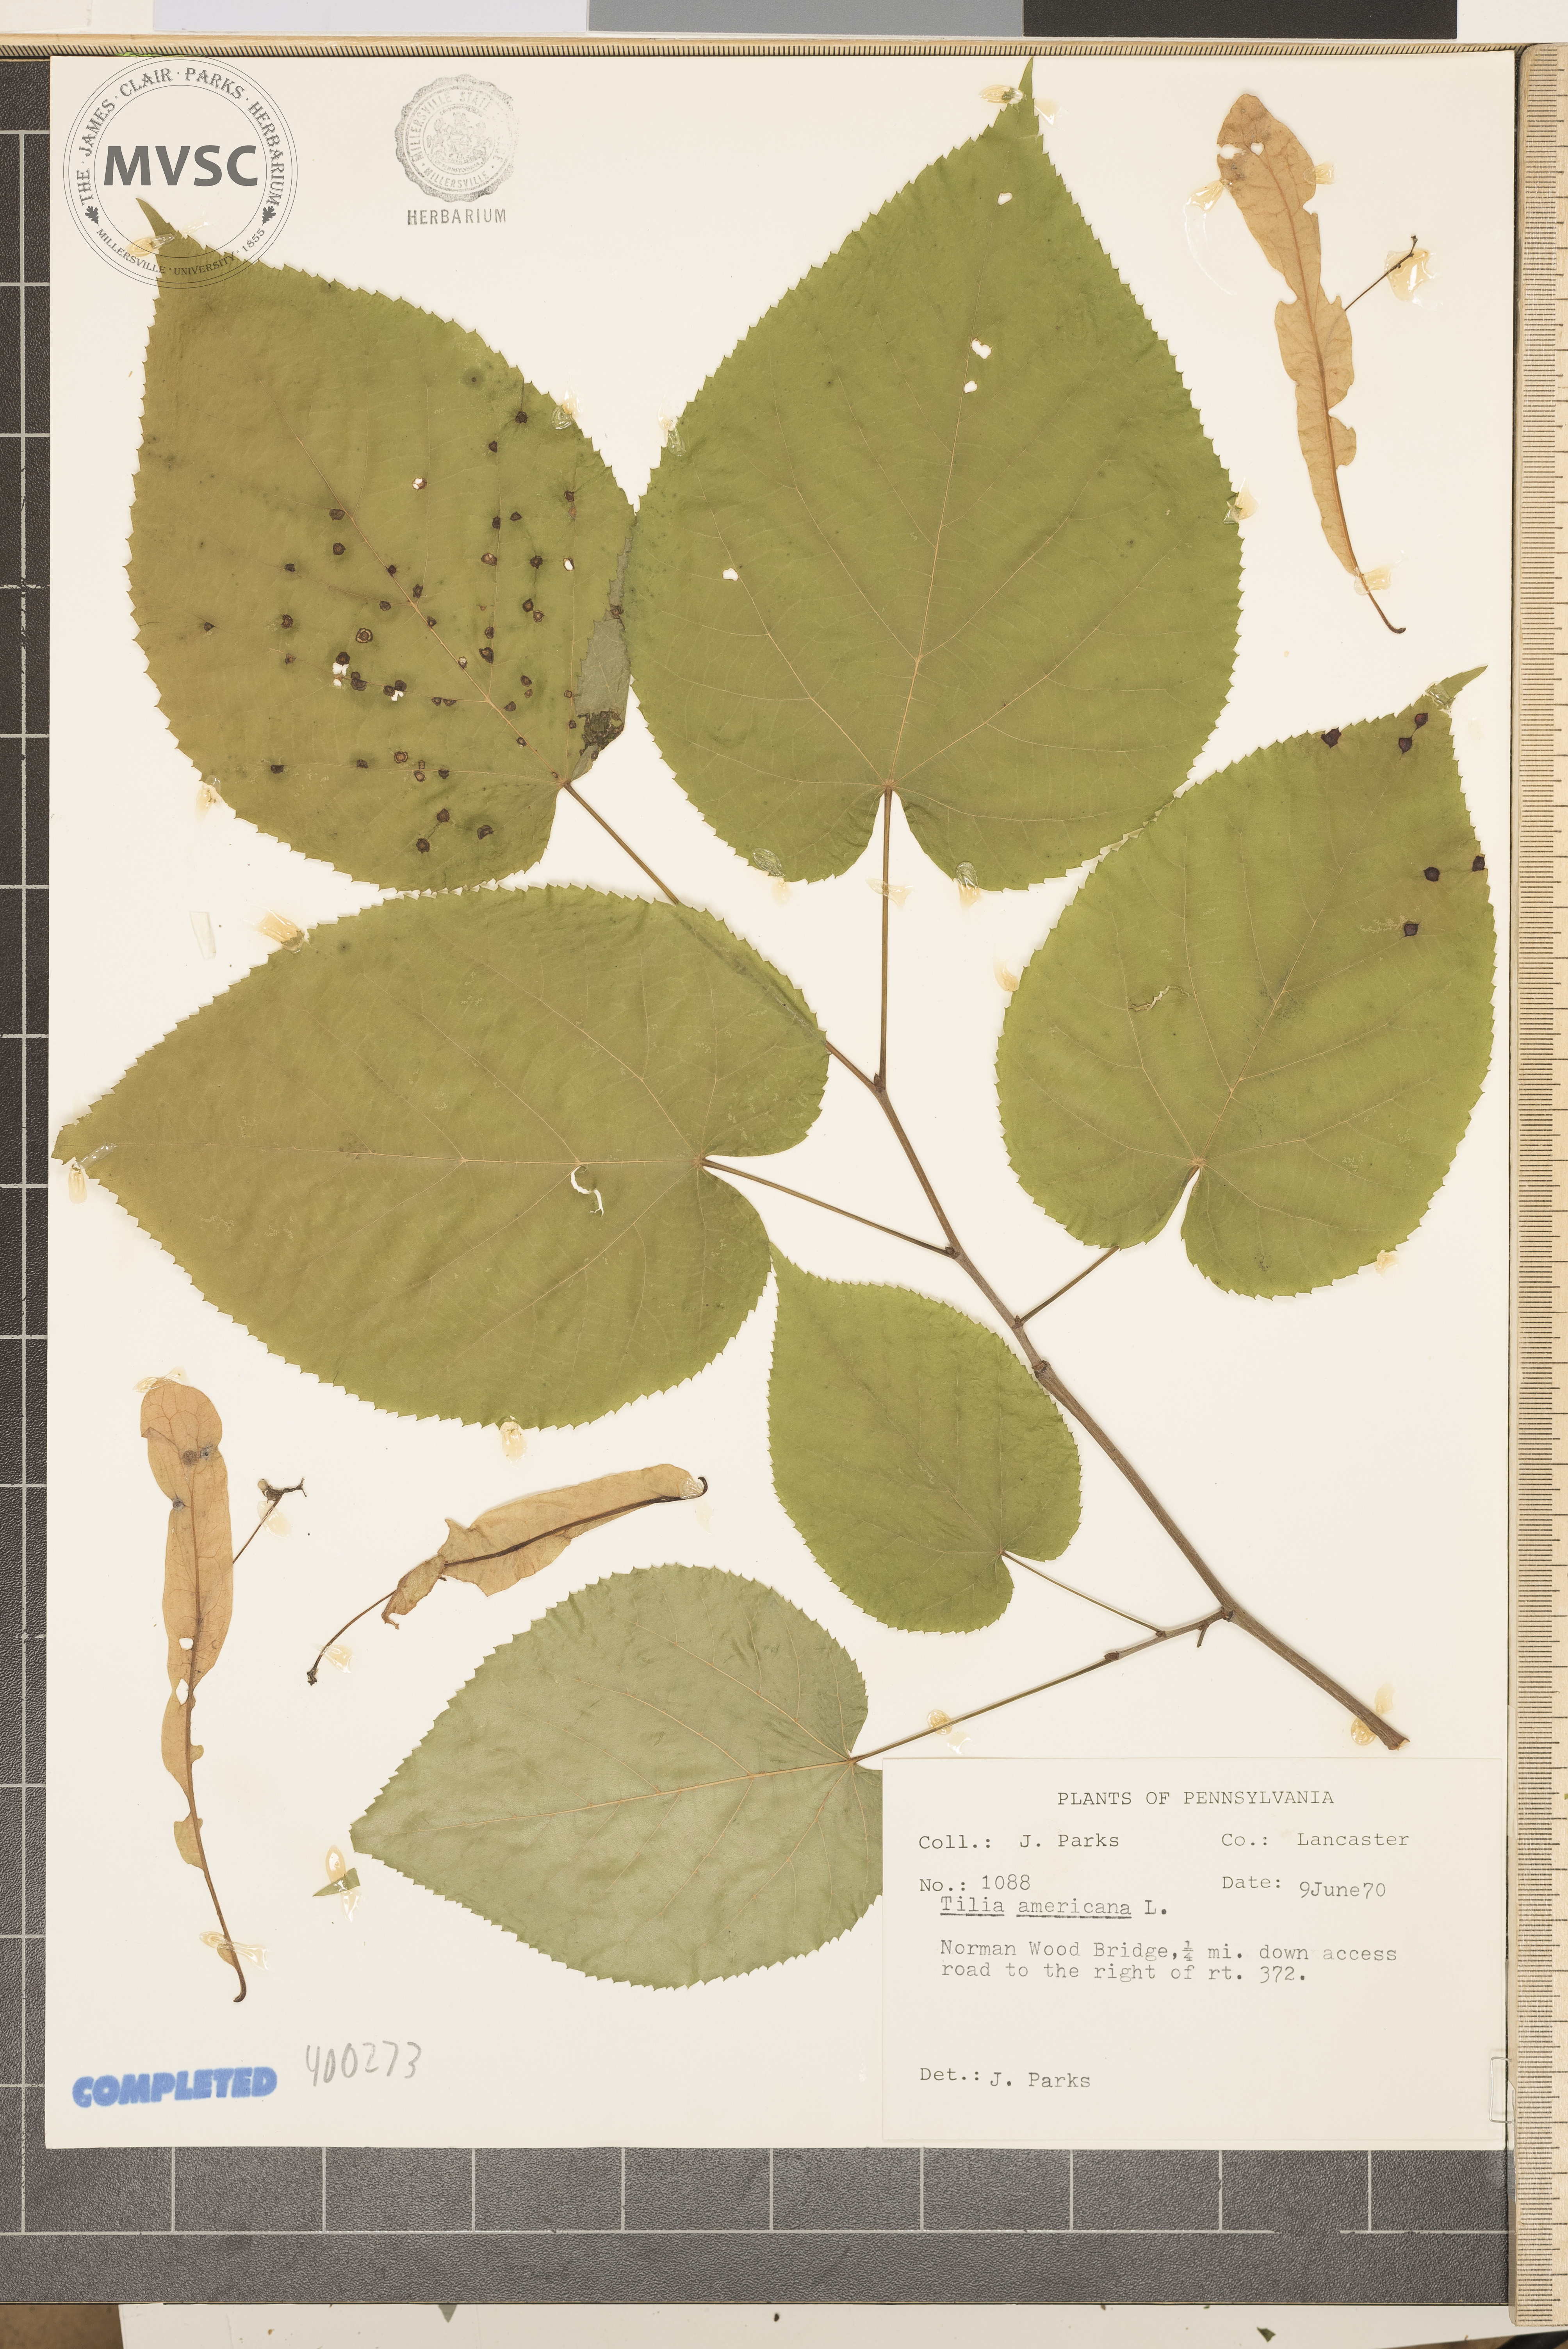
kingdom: Plantae
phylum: Tracheophyta
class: Magnoliopsida
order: Malvales
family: Malvaceae
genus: Tilia
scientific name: Tilia americana
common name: American basswood
